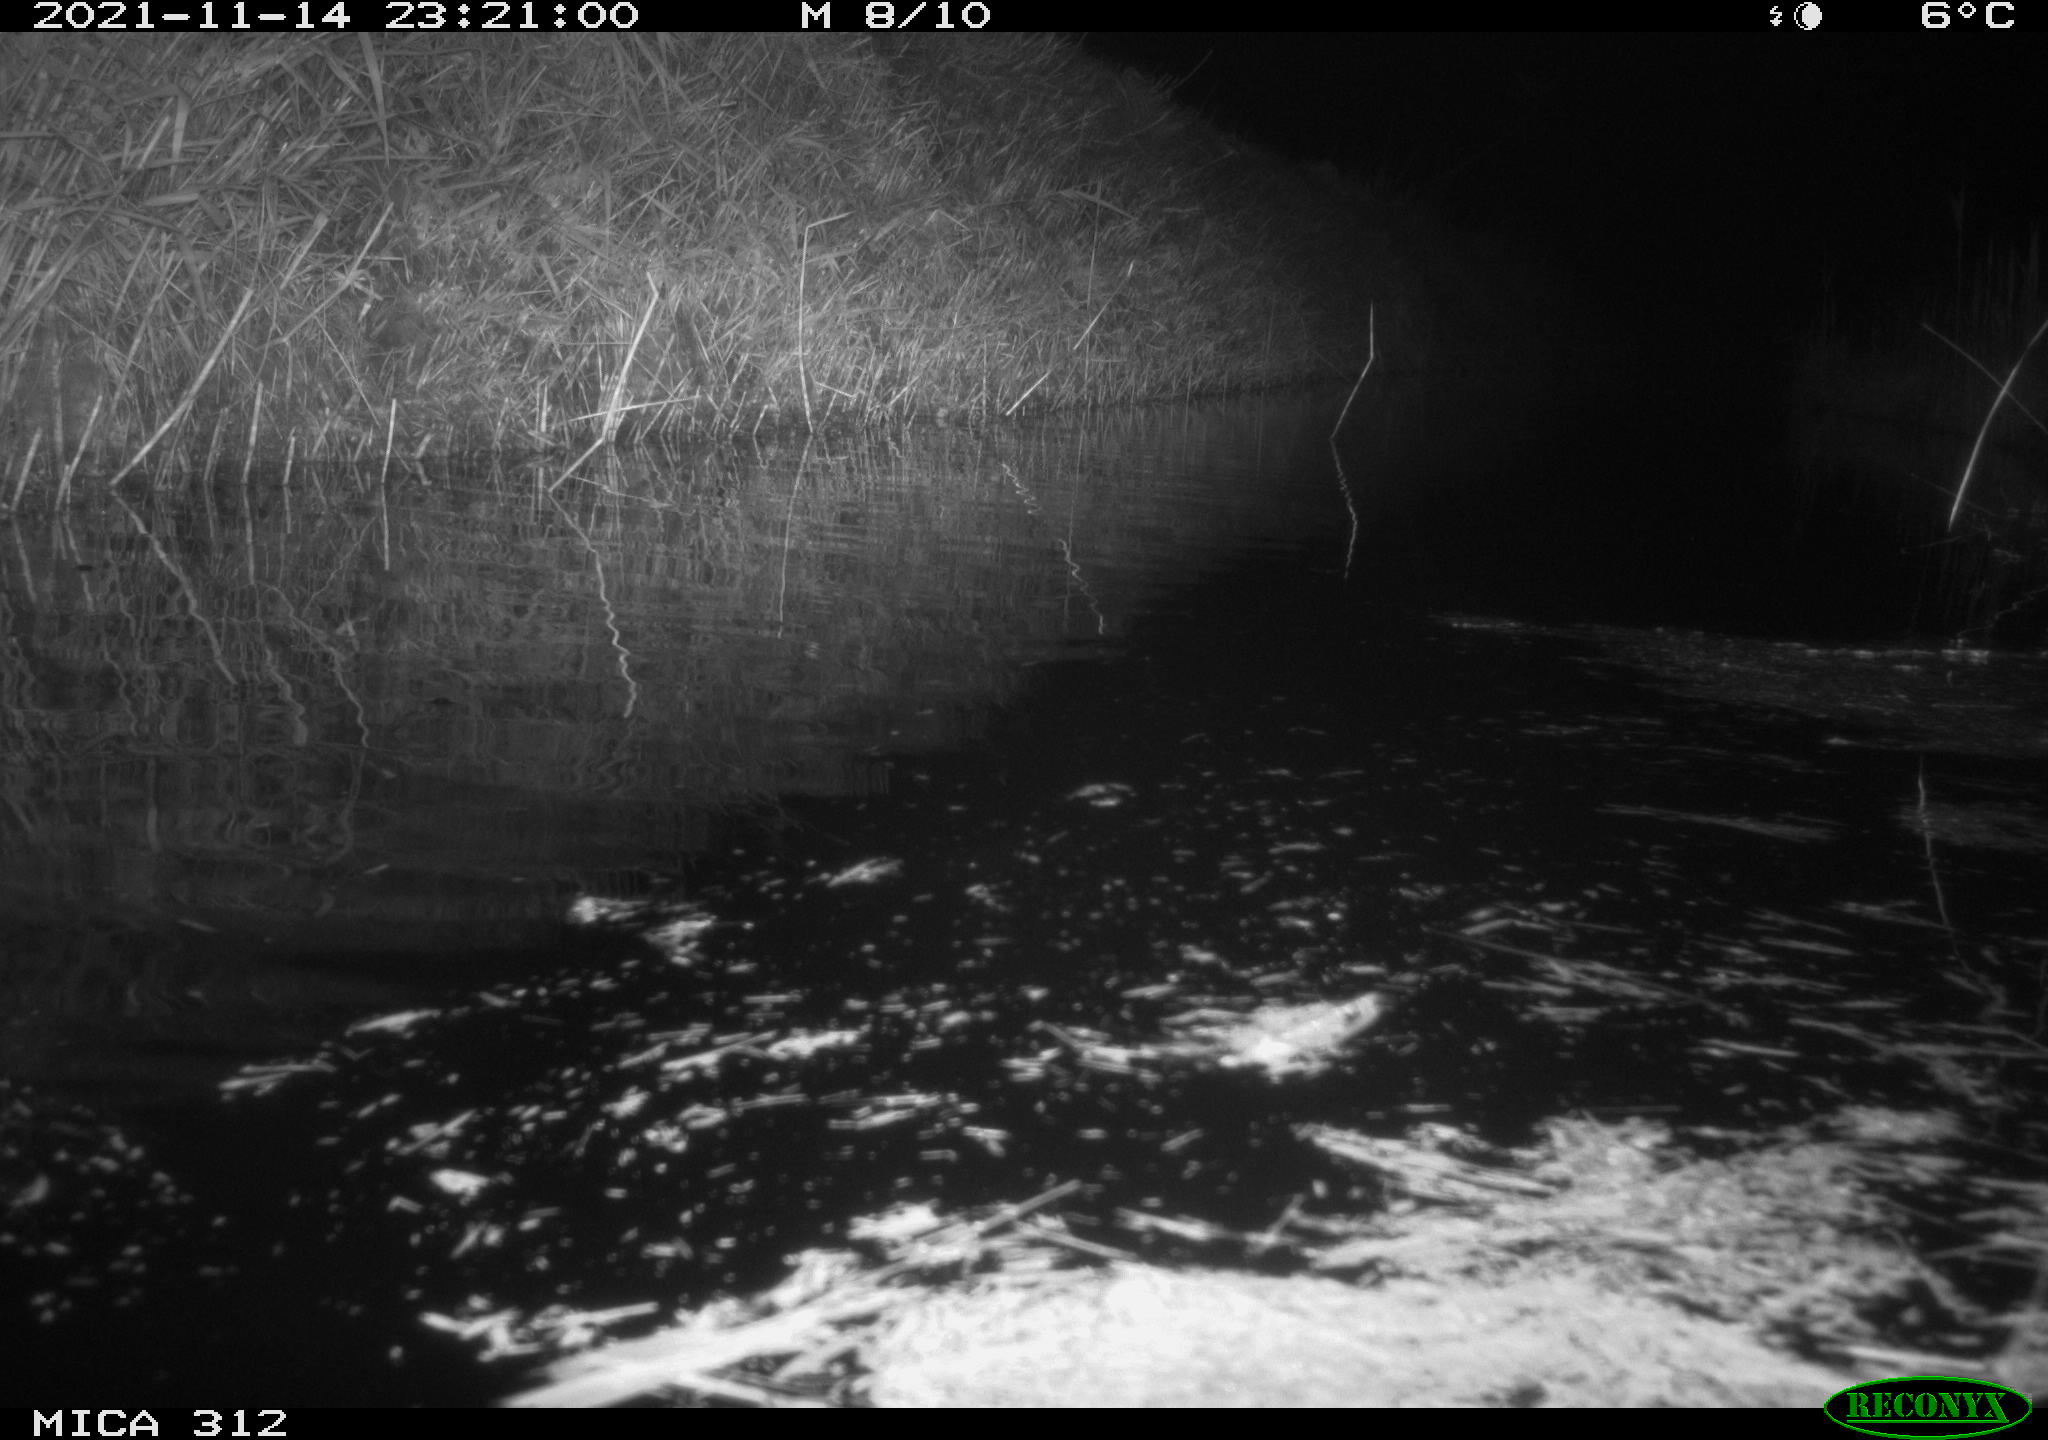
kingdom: Animalia
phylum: Chordata
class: Aves
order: Gruiformes
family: Rallidae
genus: Gallinula
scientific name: Gallinula chloropus
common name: Common moorhen
